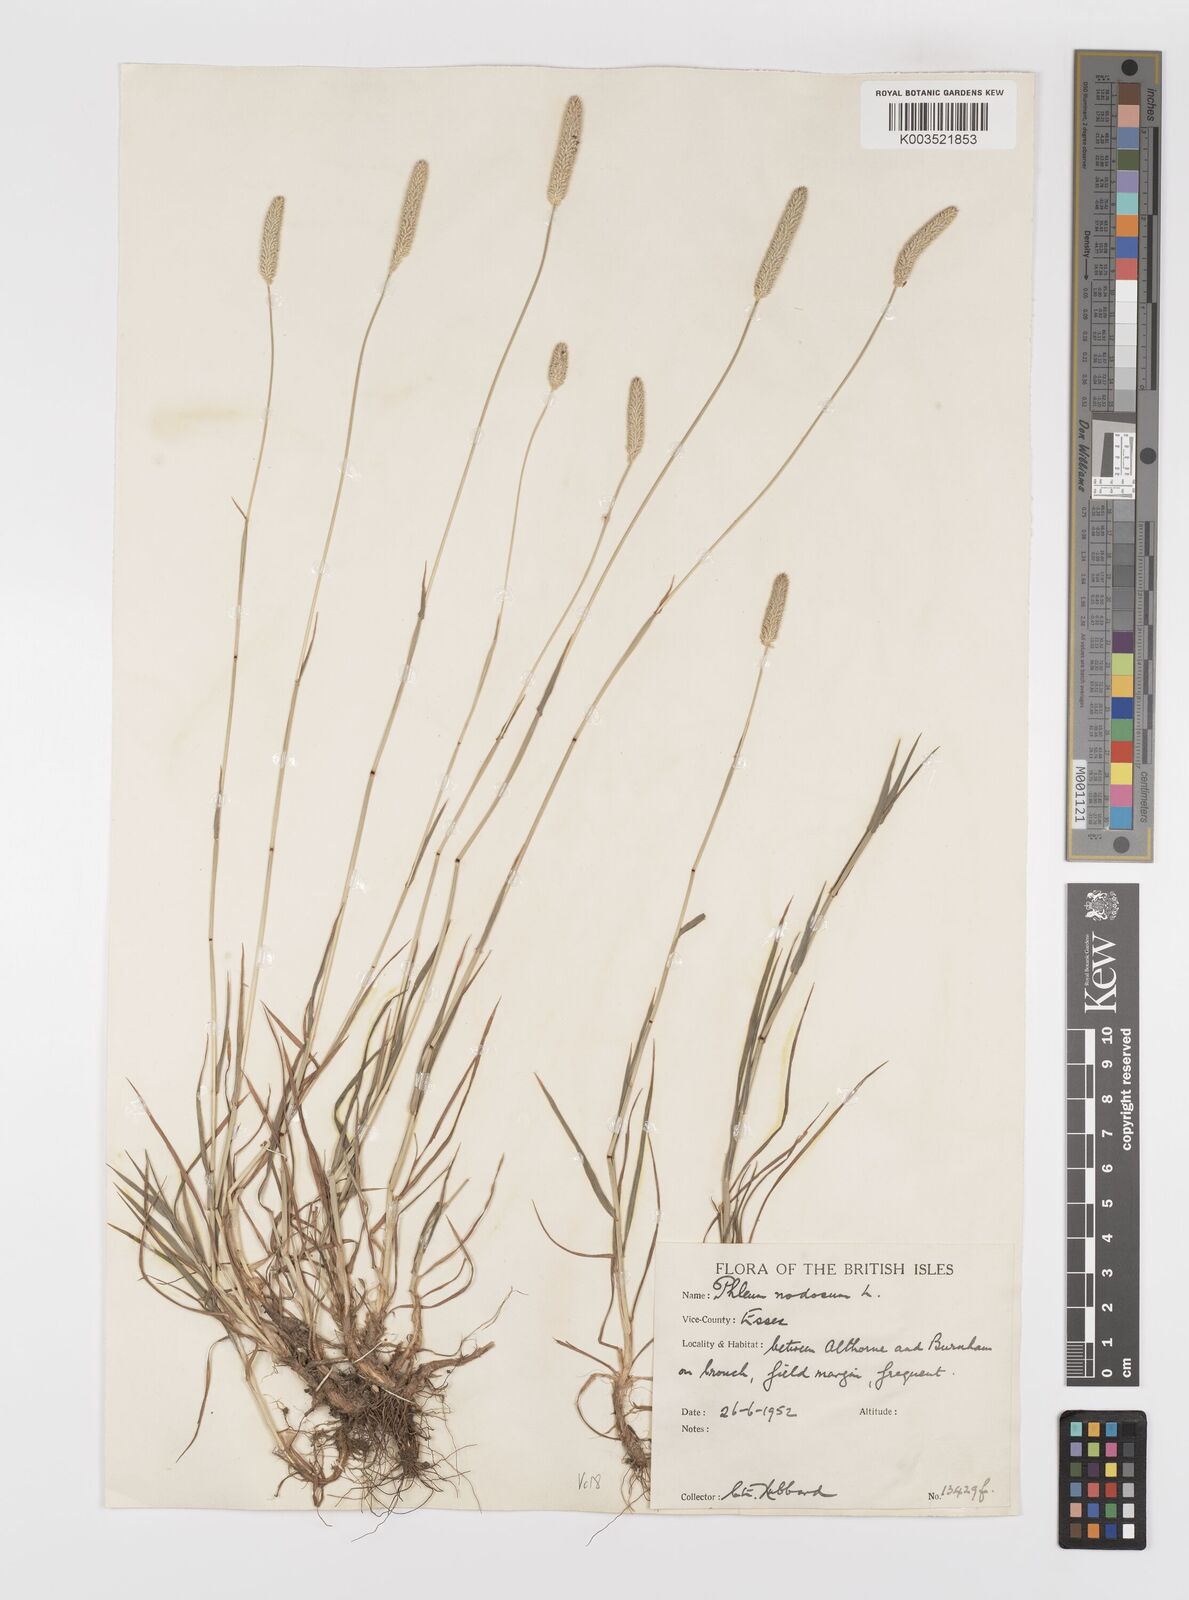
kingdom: Plantae
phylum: Tracheophyta
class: Liliopsida
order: Poales
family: Poaceae
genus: Phleum
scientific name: Phleum bertolonii
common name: Smaller cat's-tail
